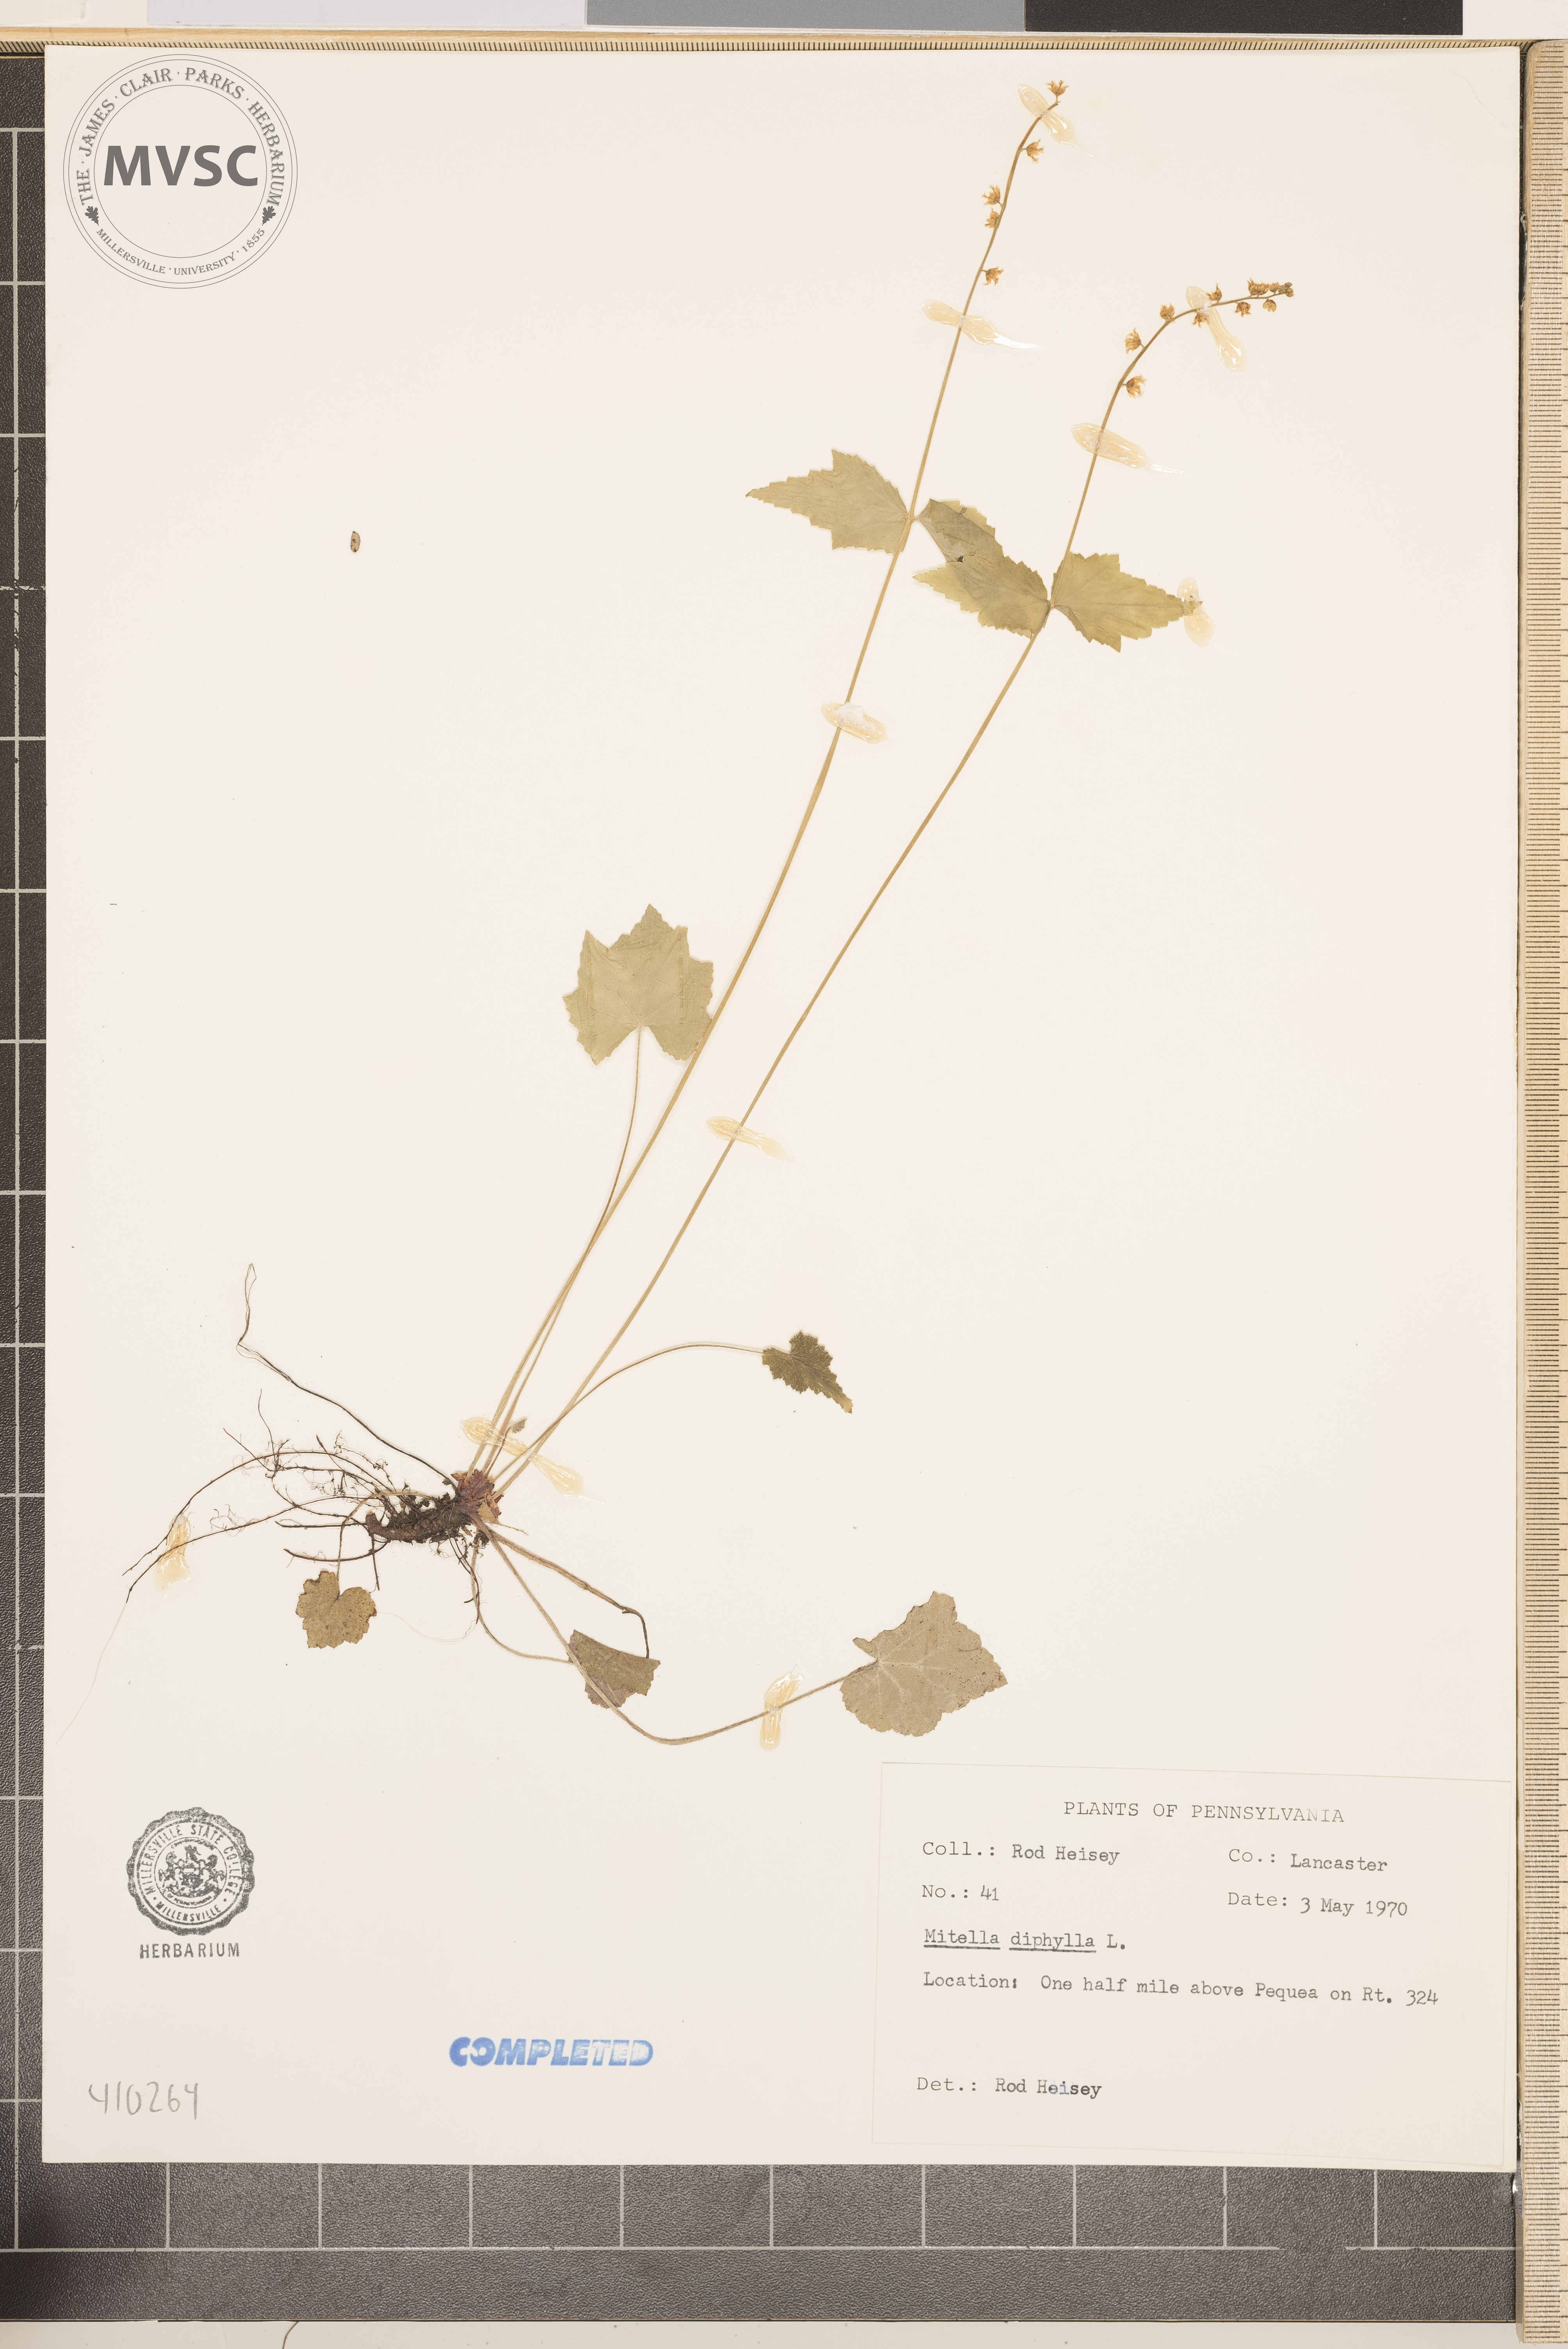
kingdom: Plantae
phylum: Tracheophyta
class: Magnoliopsida
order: Saxifragales
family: Saxifragaceae
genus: Mitella
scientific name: Mitella diphylla
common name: Coolwort
